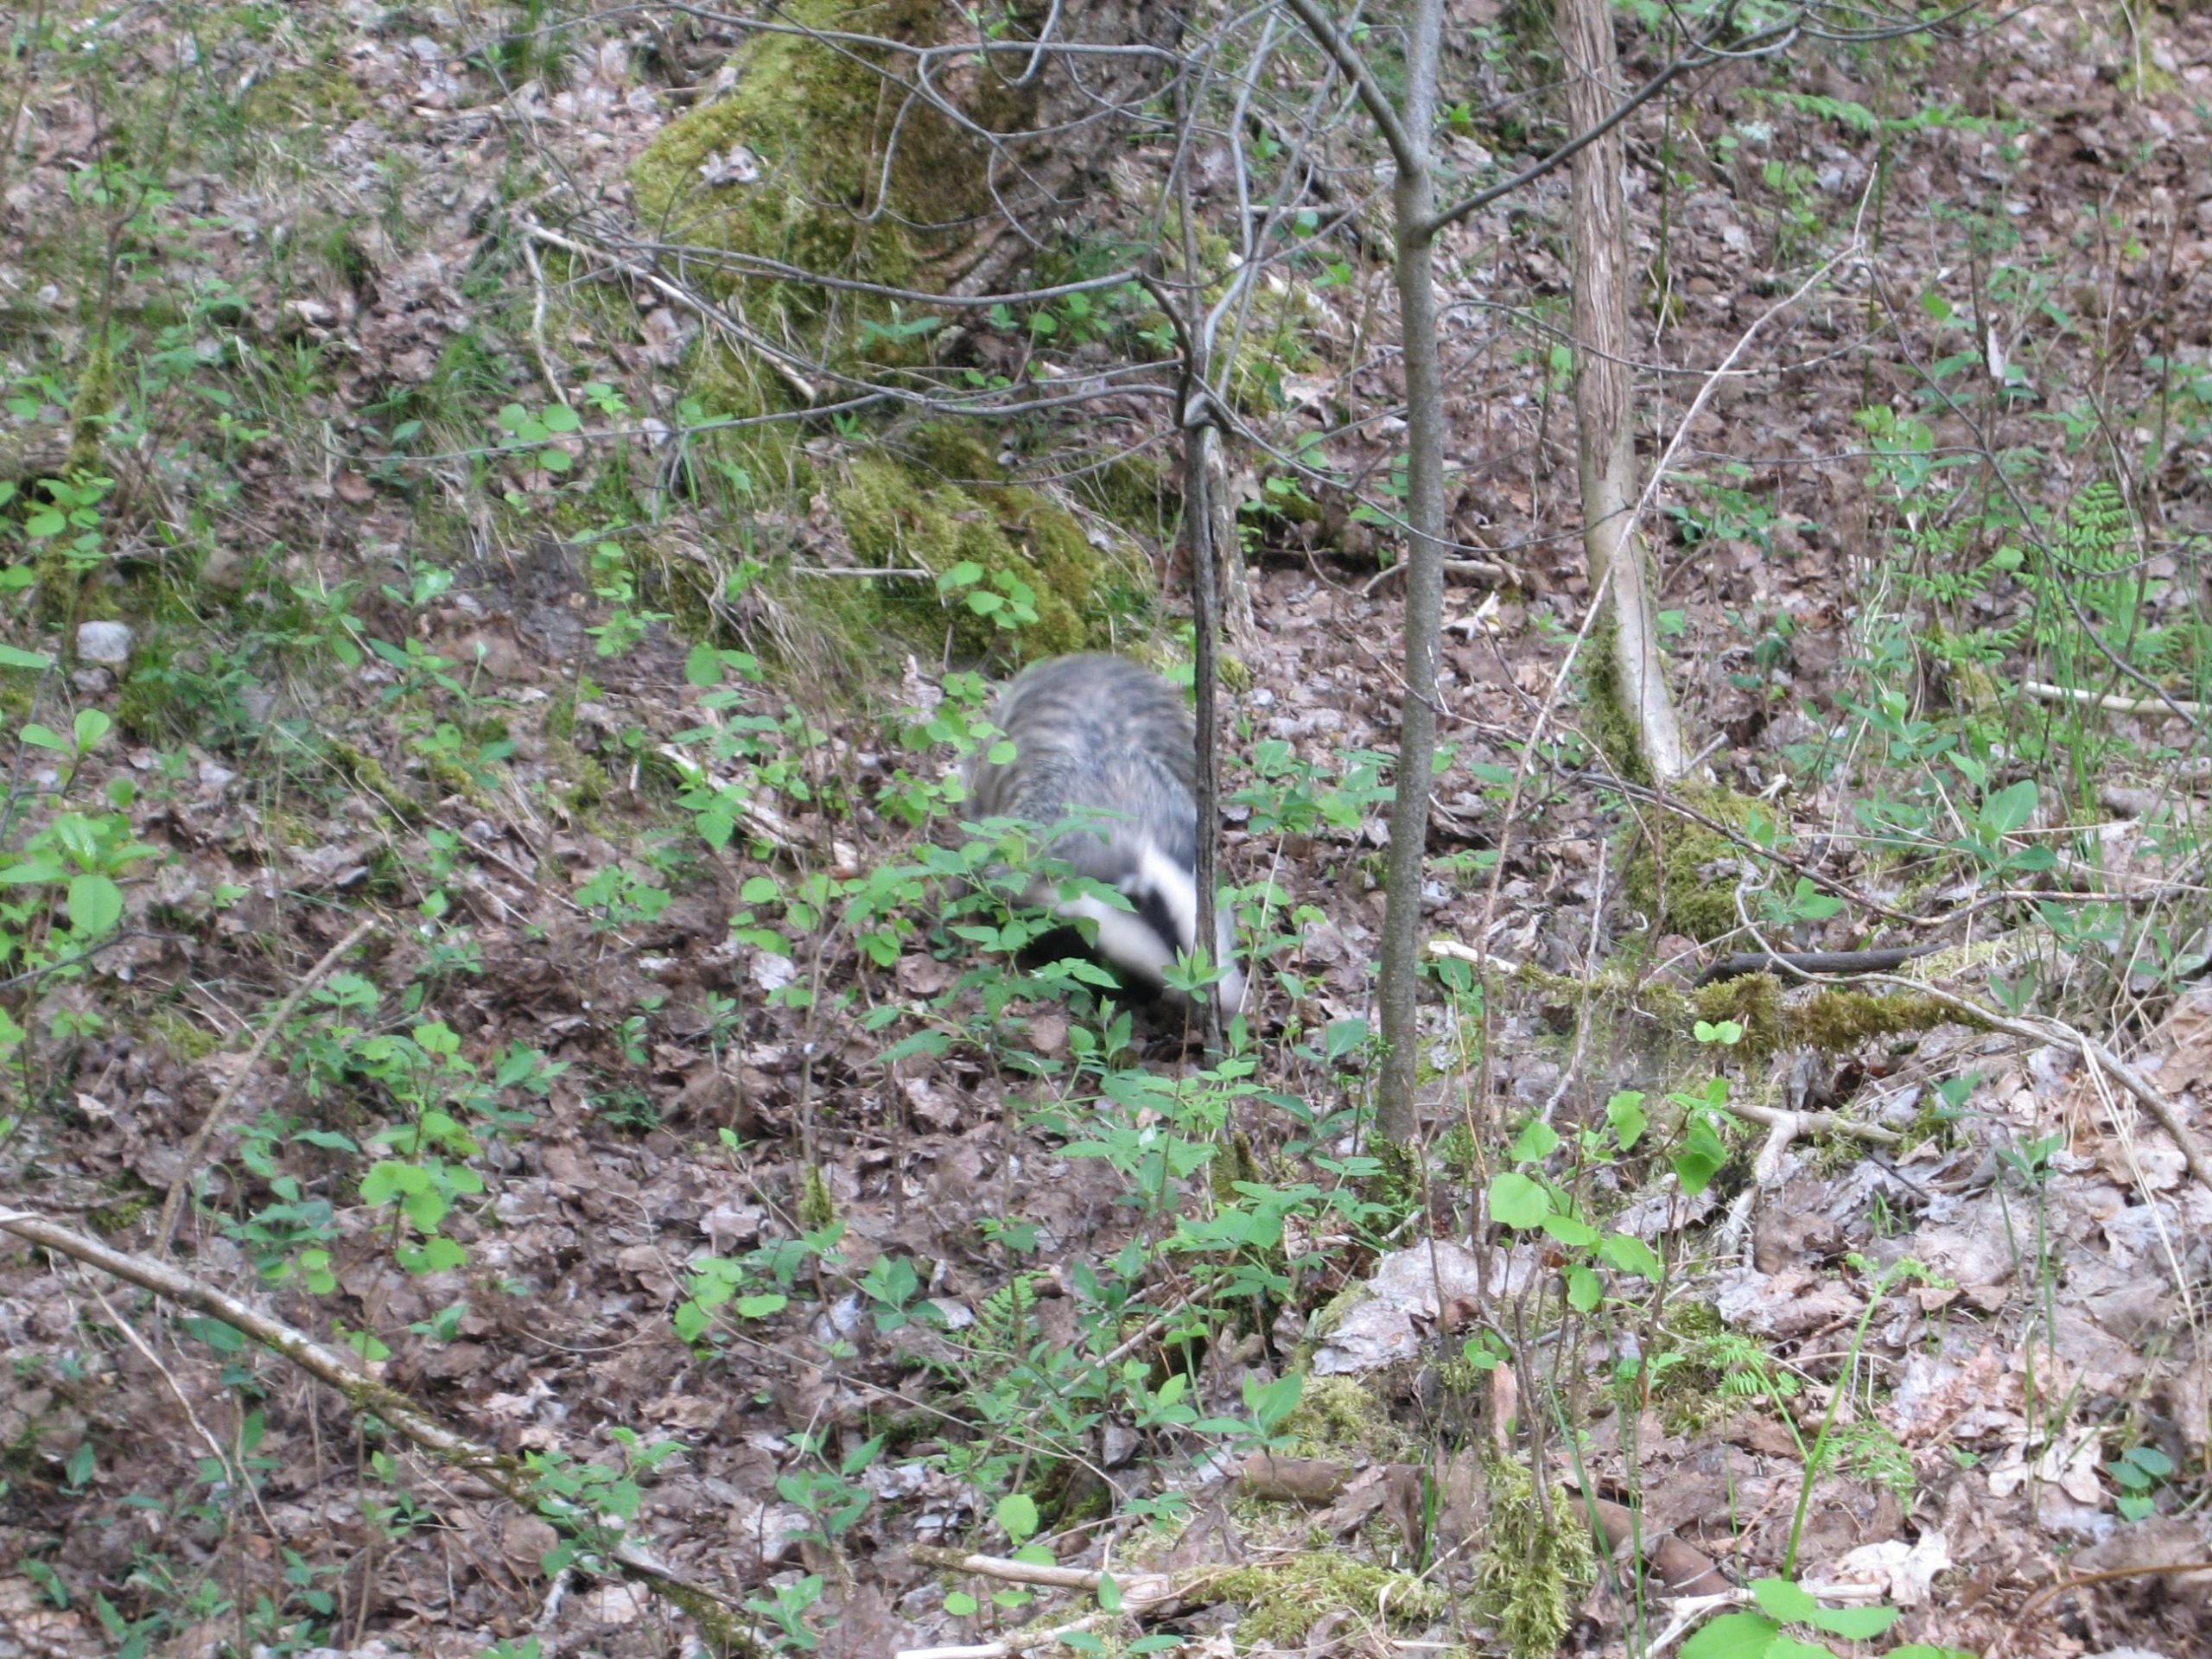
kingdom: Animalia
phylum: Chordata
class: Mammalia
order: Carnivora
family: Mustelidae
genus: Meles
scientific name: Meles meles
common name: Grævling
